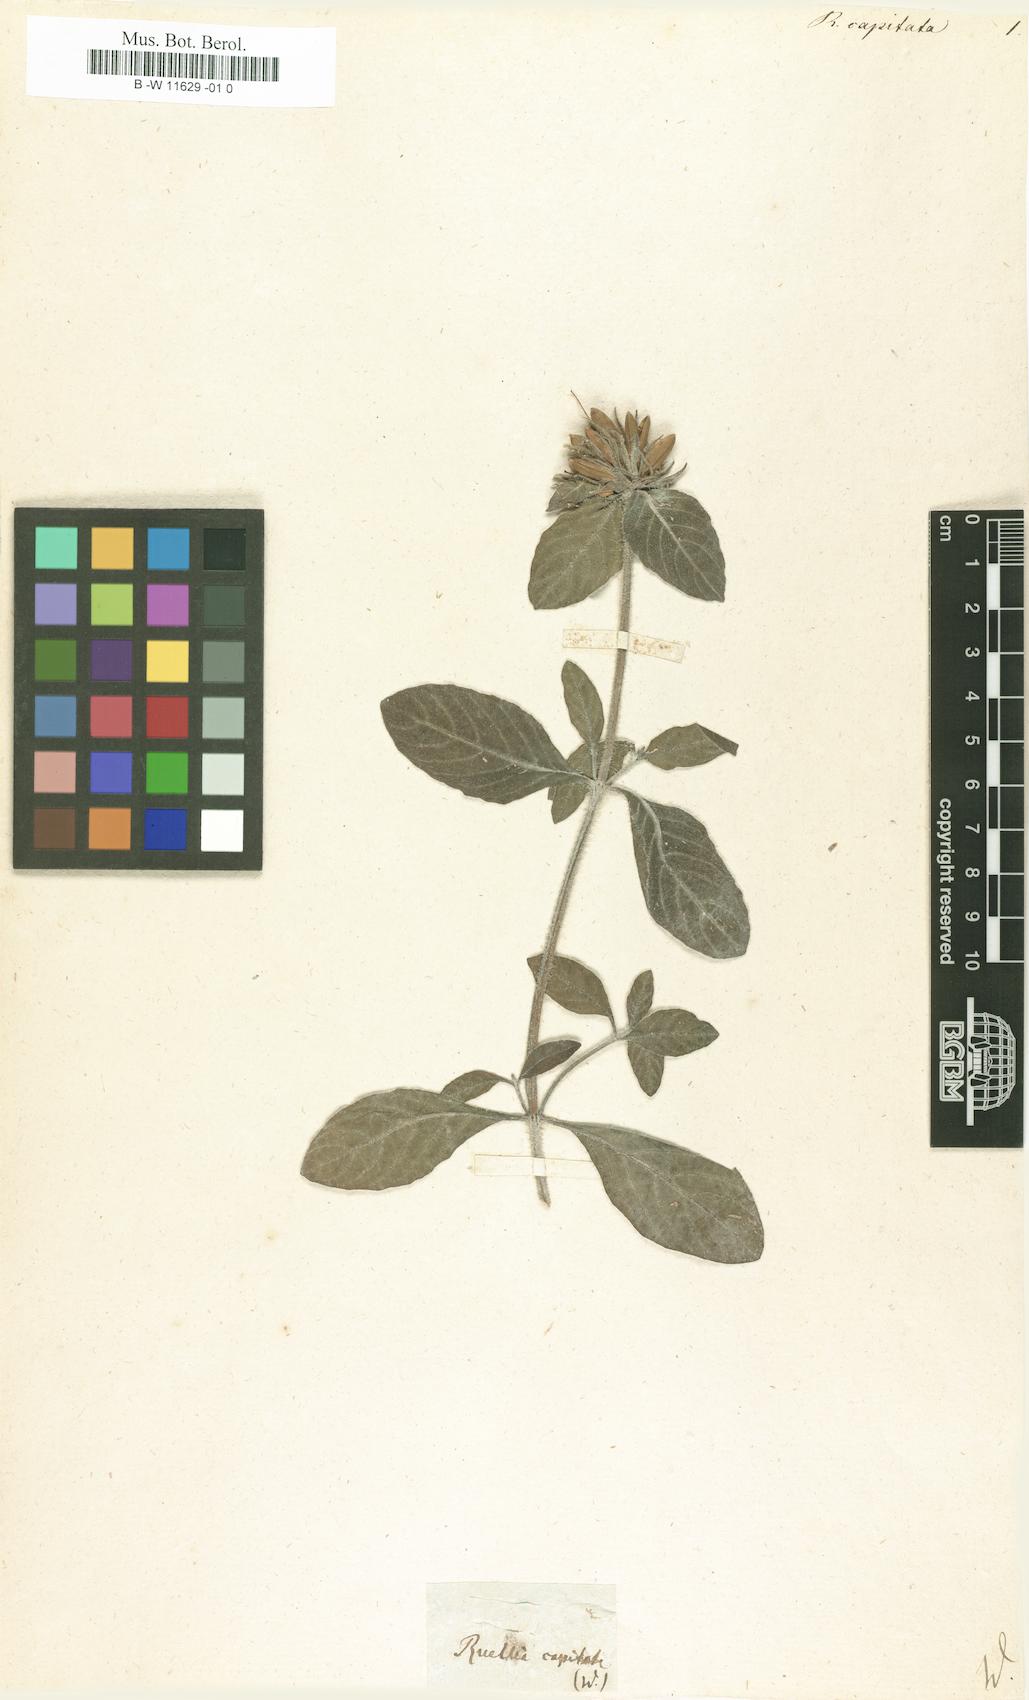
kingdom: Plantae
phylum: Tracheophyta
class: Magnoliopsida
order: Lamiales
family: Acanthaceae
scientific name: Acanthaceae
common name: Acanthaceae
